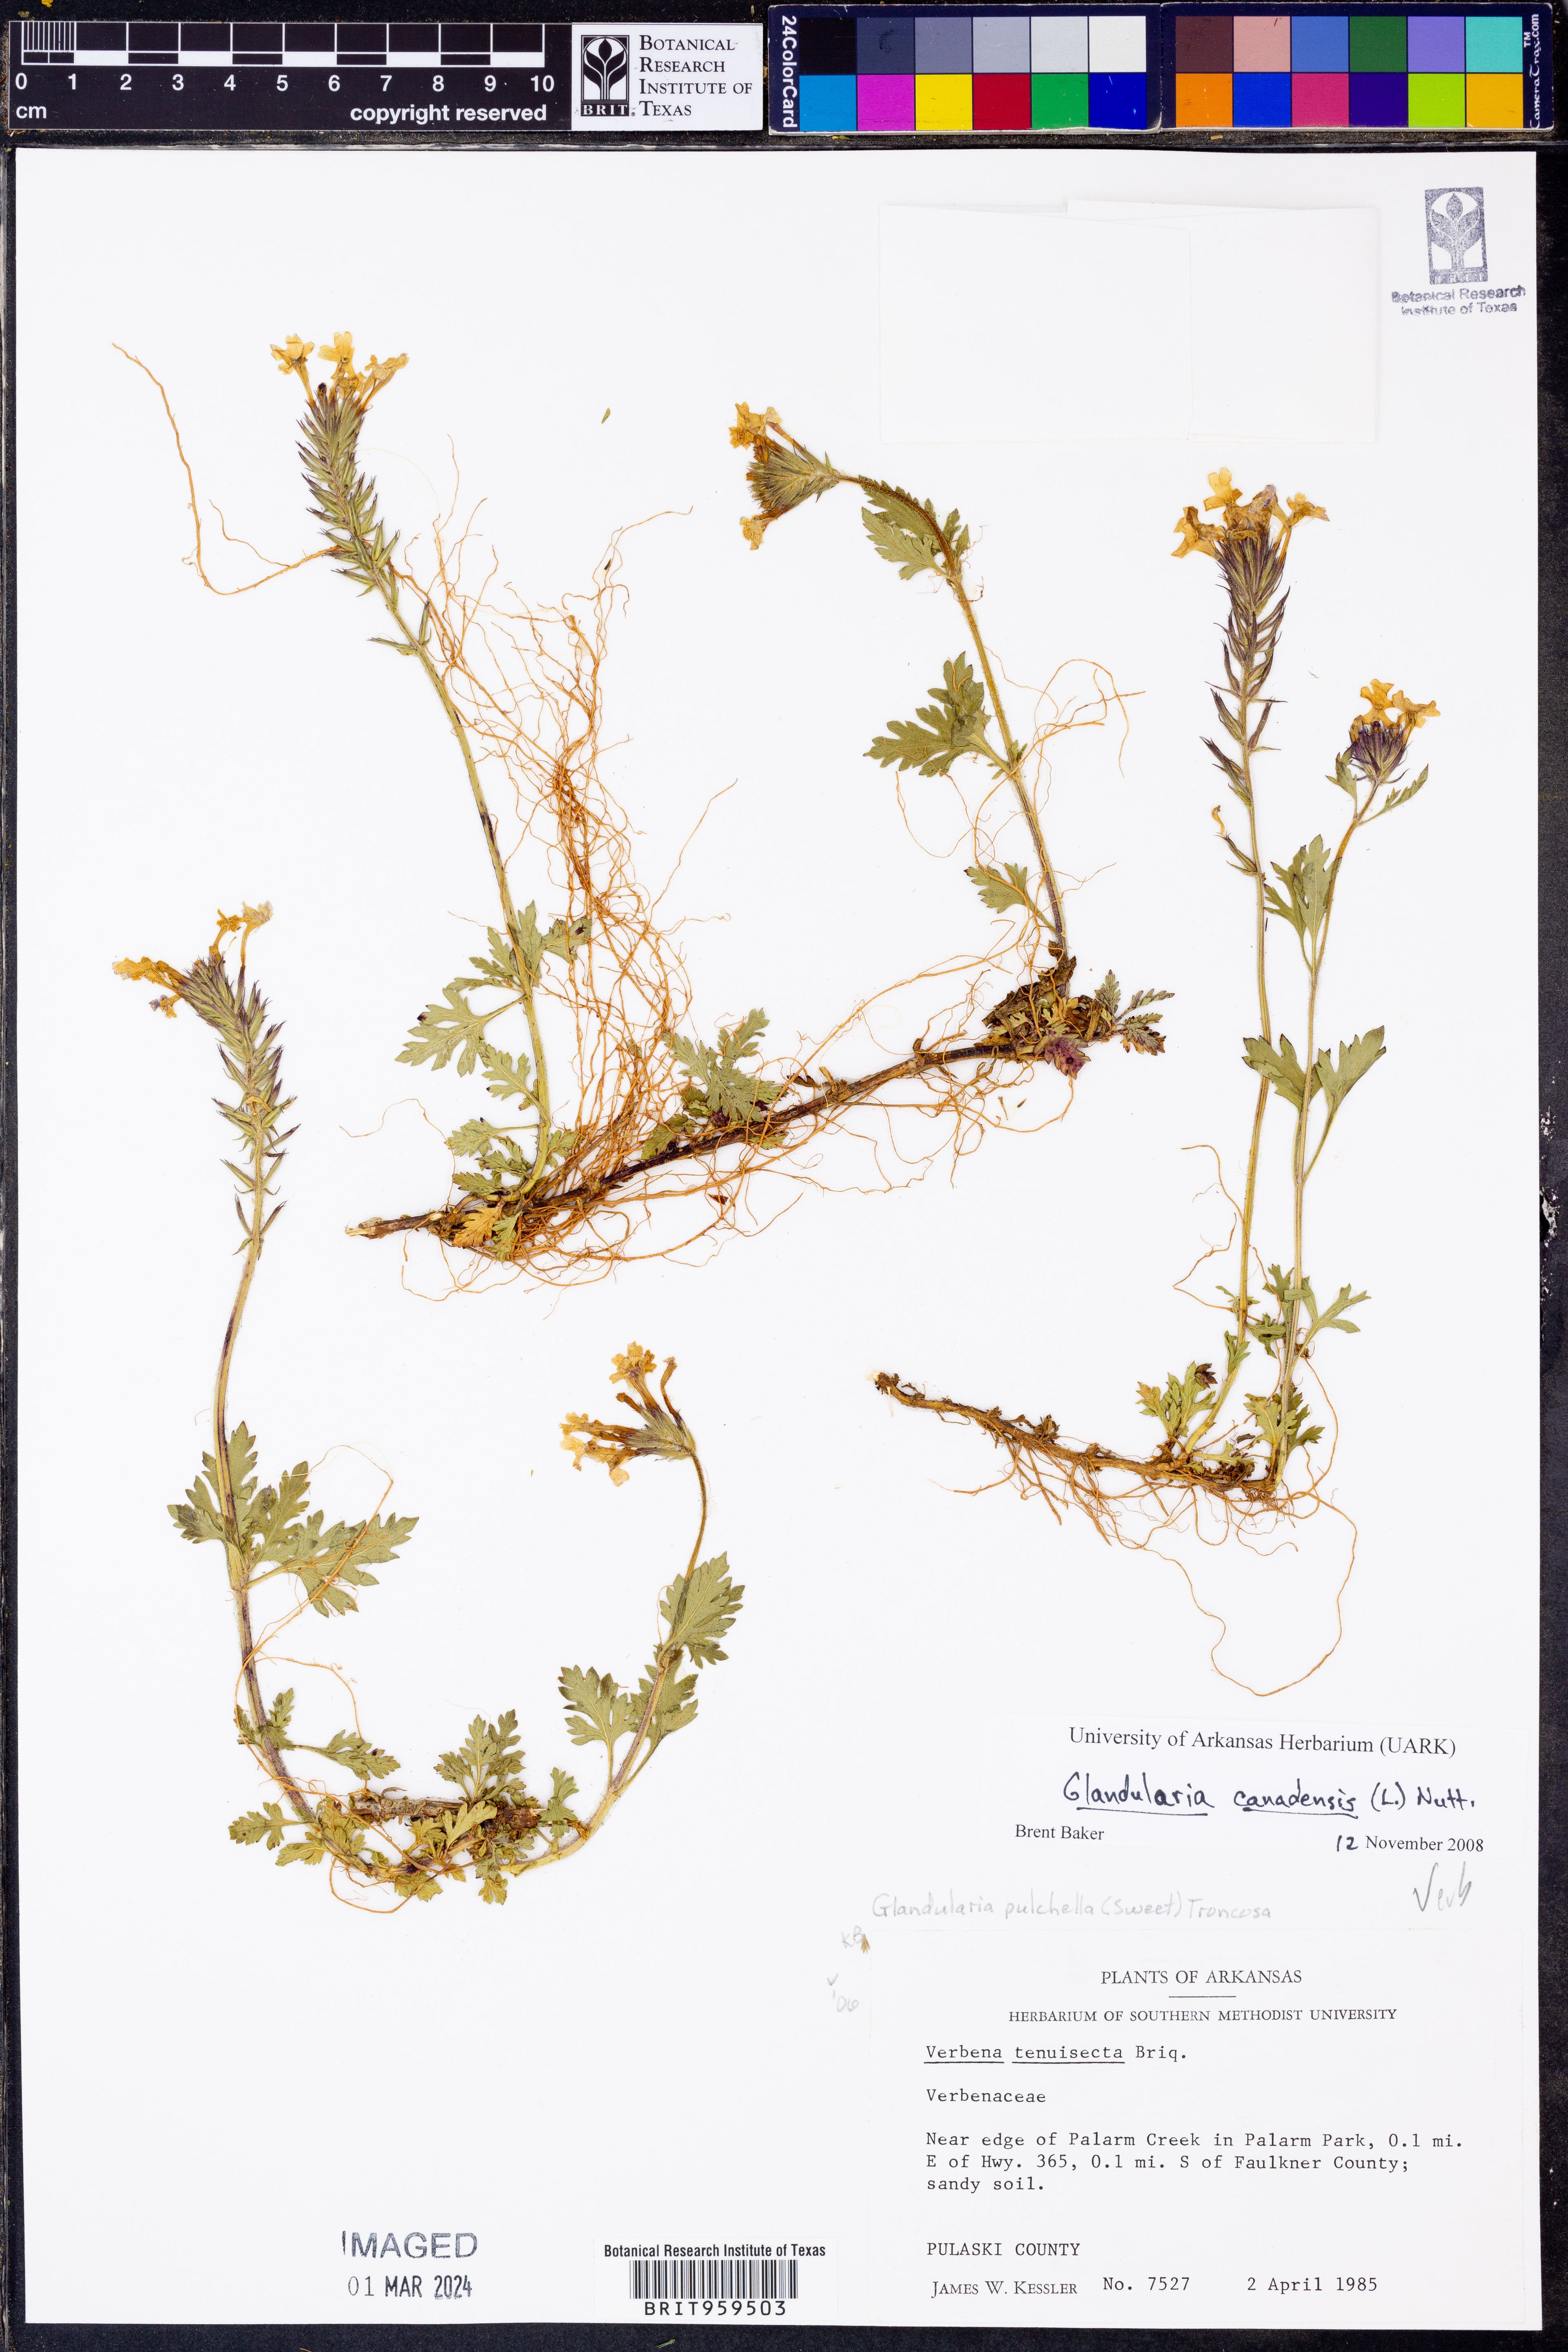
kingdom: Plantae
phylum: Tracheophyta
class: Magnoliopsida
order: Lamiales
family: Verbenaceae
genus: Verbena
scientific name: Verbena canadensis
